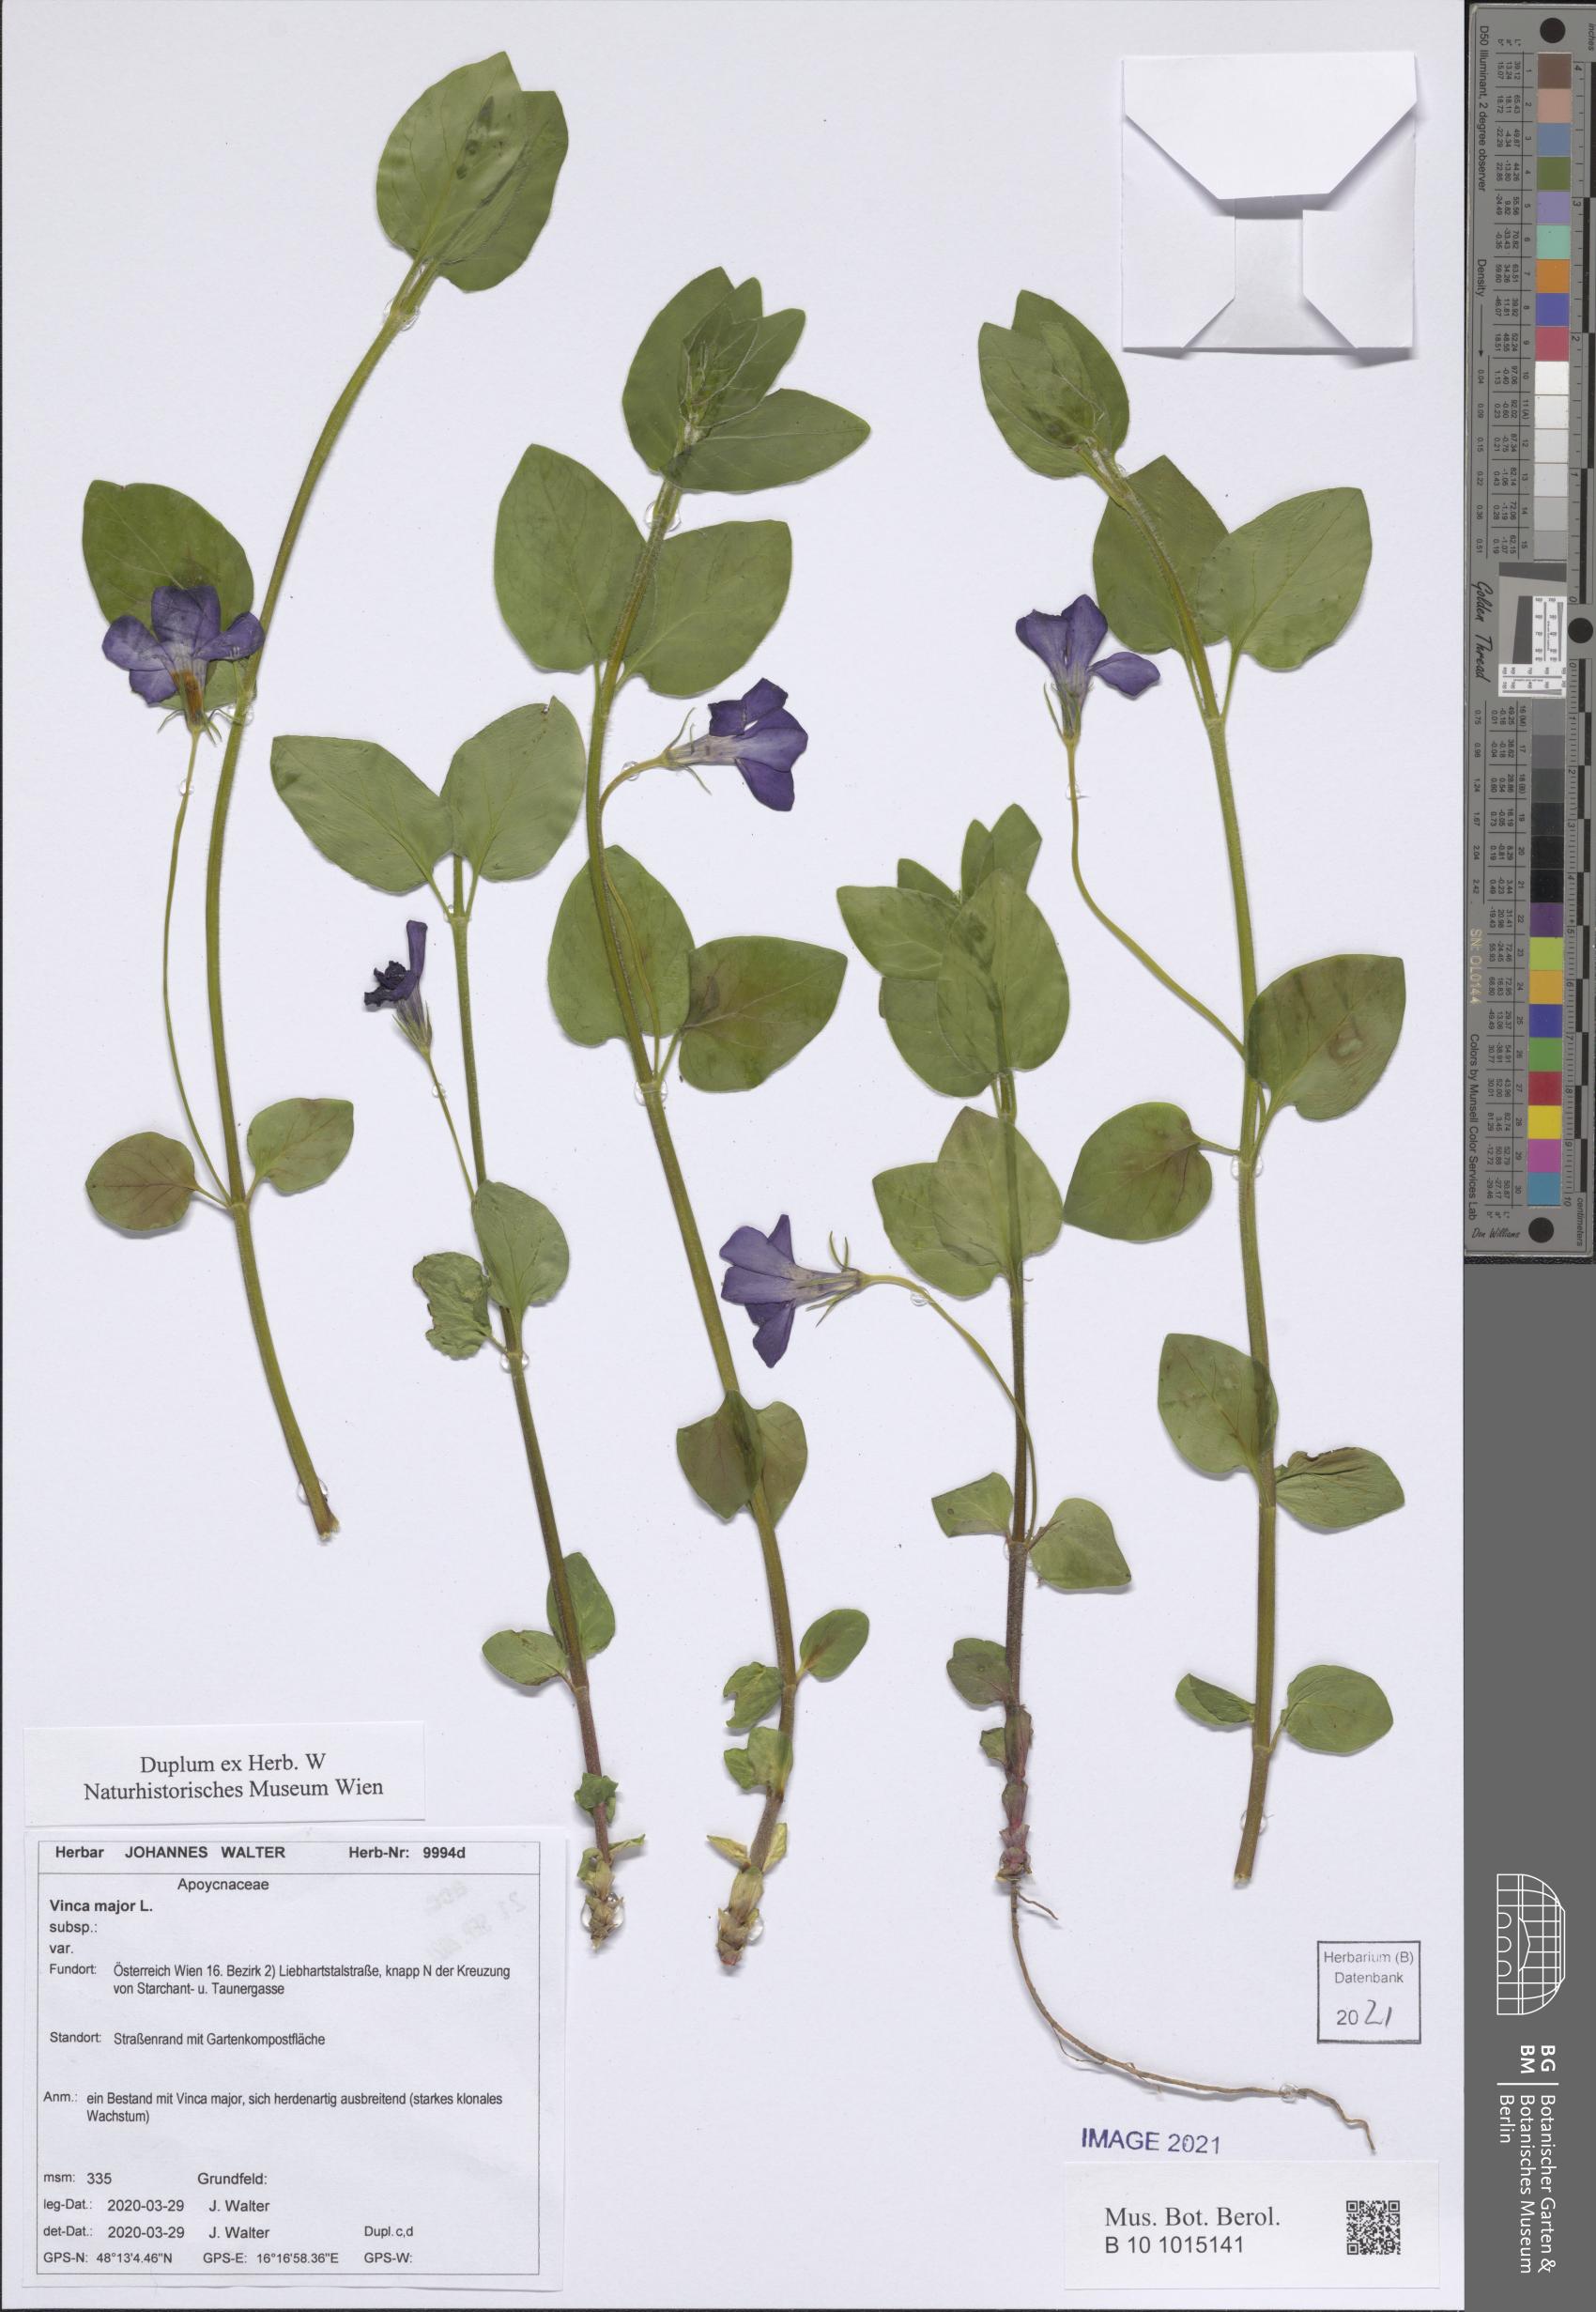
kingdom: Plantae
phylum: Tracheophyta
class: Magnoliopsida
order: Gentianales
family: Apocynaceae
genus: Vinca
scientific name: Vinca major
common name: Greater periwinkle
